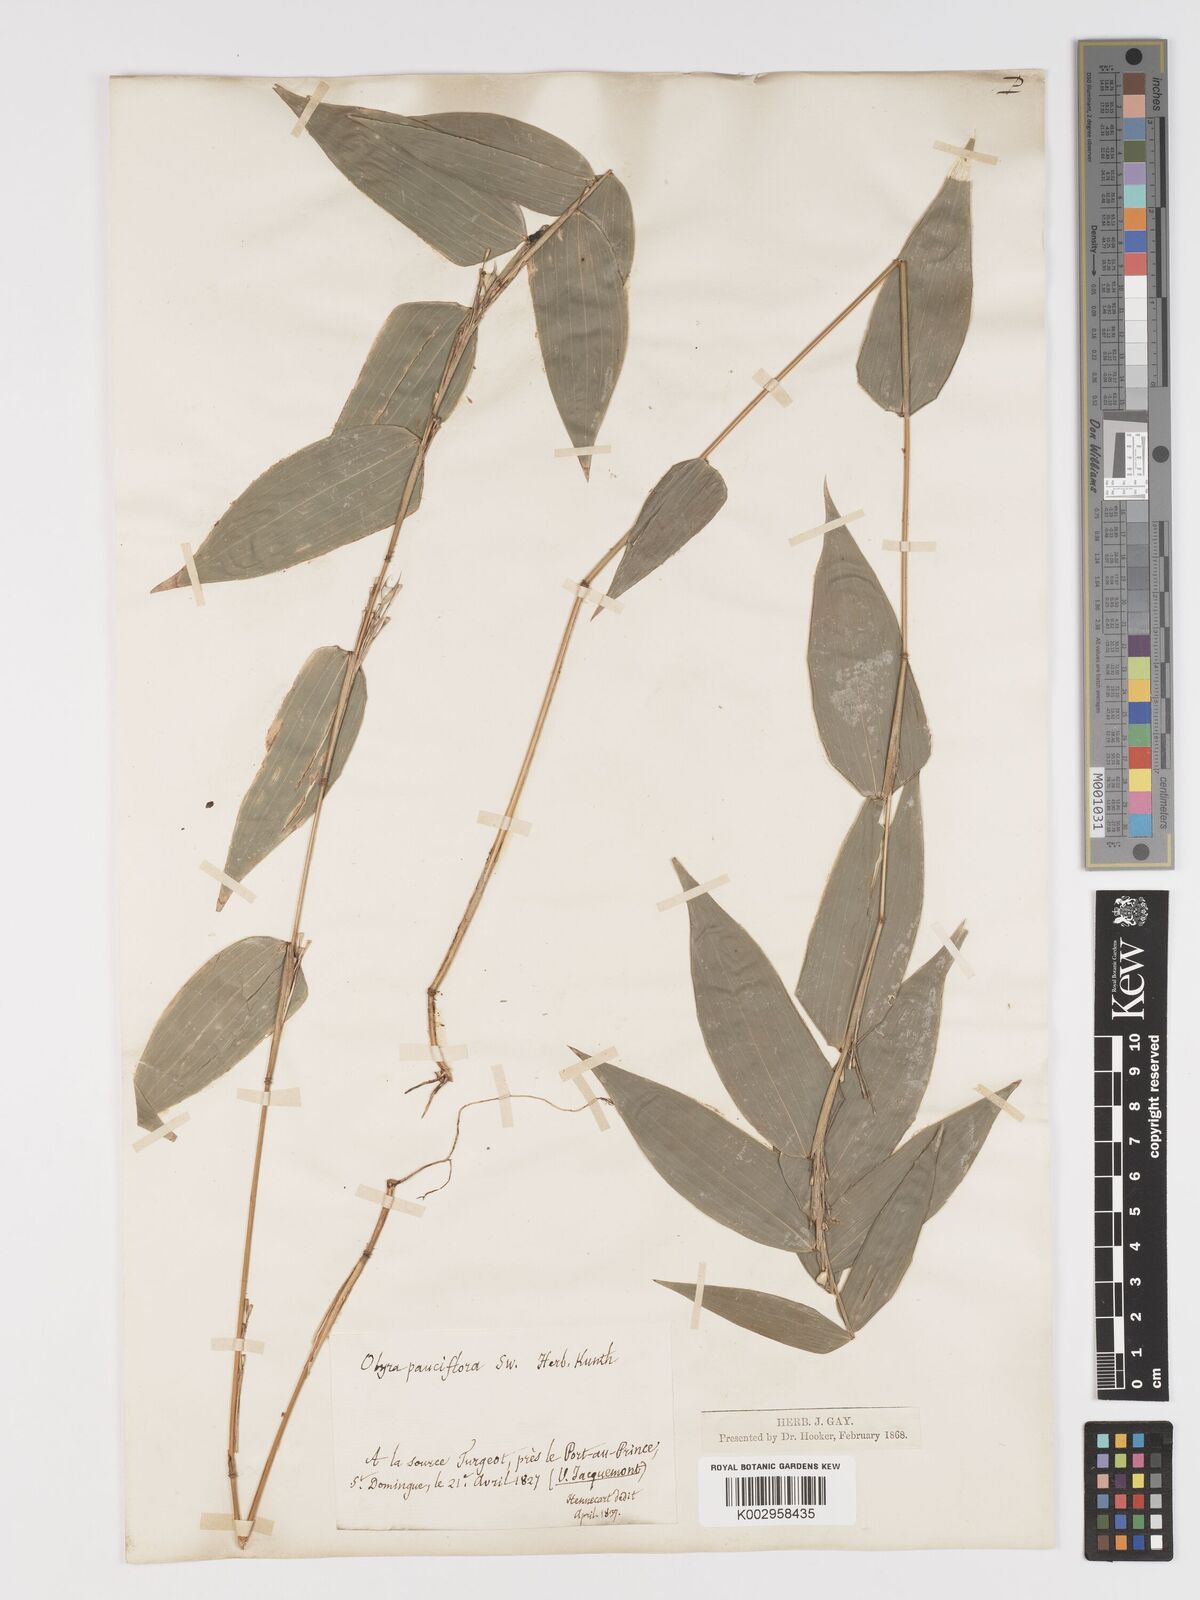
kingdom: Plantae
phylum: Tracheophyta
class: Liliopsida
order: Poales
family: Poaceae
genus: Lithachne
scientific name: Lithachne pauciflora
